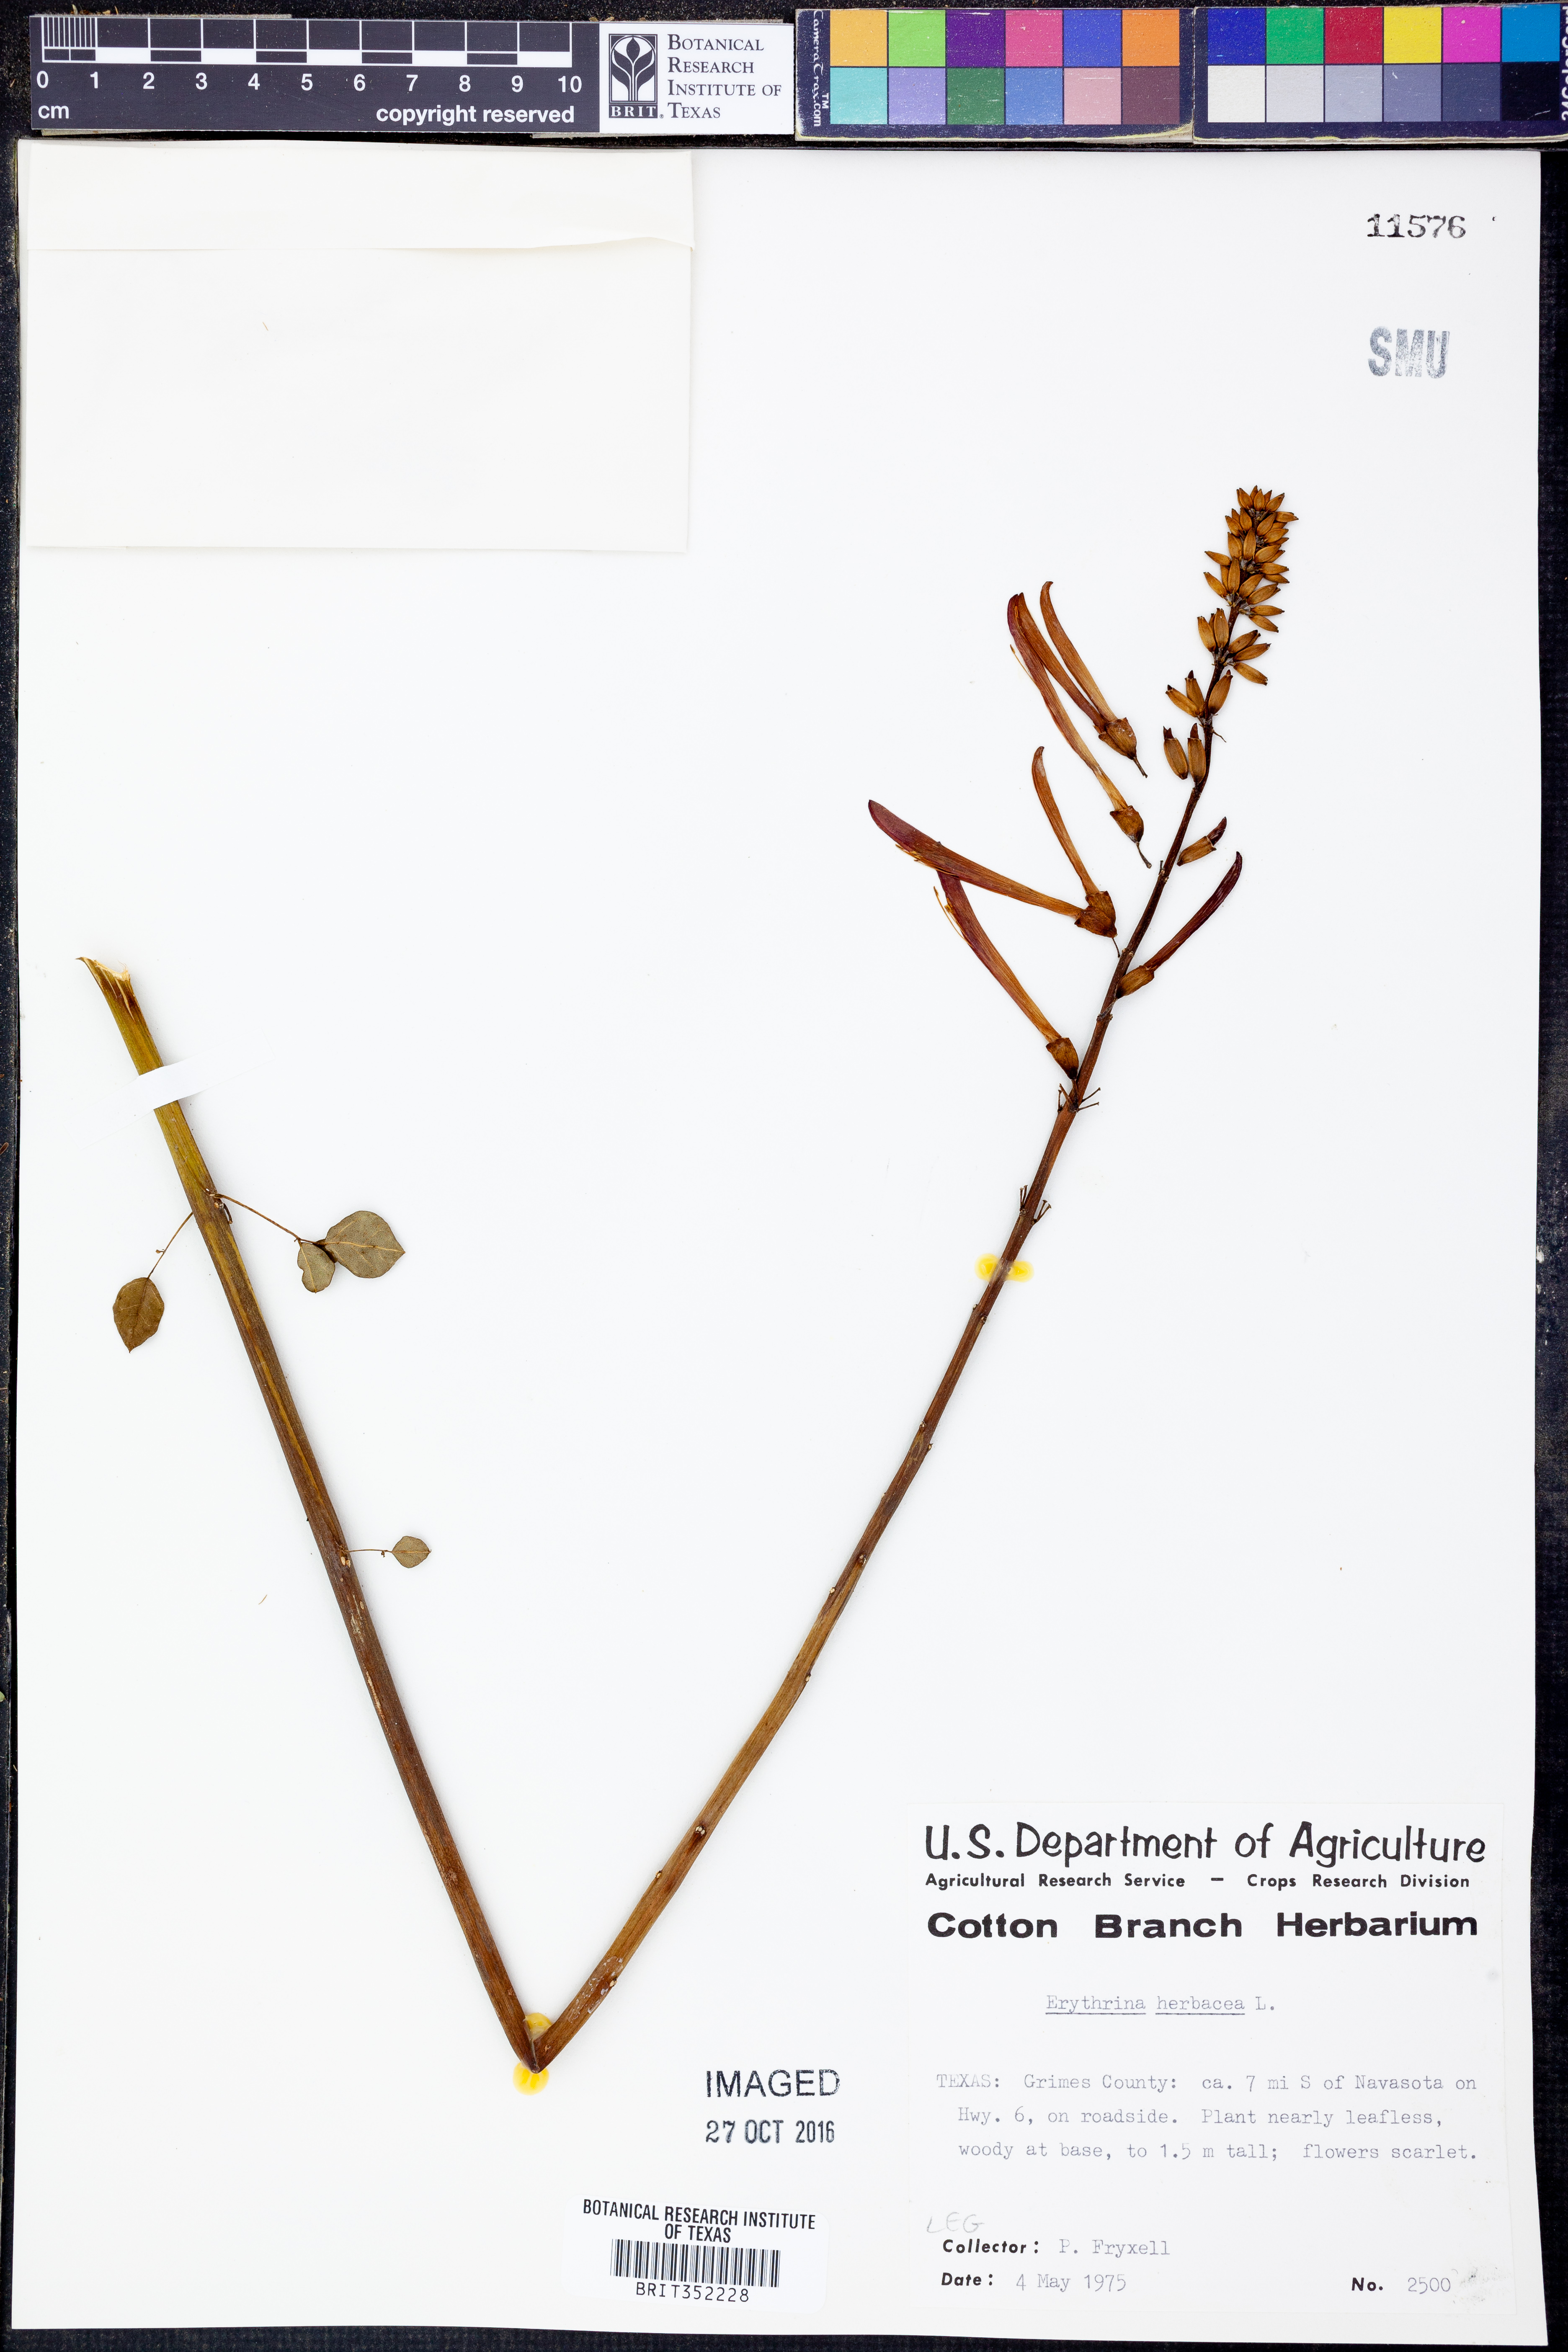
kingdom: Plantae
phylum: Tracheophyta
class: Magnoliopsida
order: Fabales
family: Fabaceae
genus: Erythrina
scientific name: Erythrina herbacea
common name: Coral-bean
